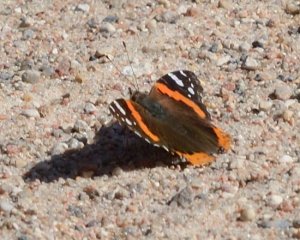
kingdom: Animalia
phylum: Arthropoda
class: Insecta
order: Lepidoptera
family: Nymphalidae
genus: Vanessa
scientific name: Vanessa atalanta
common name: Red Admiral
